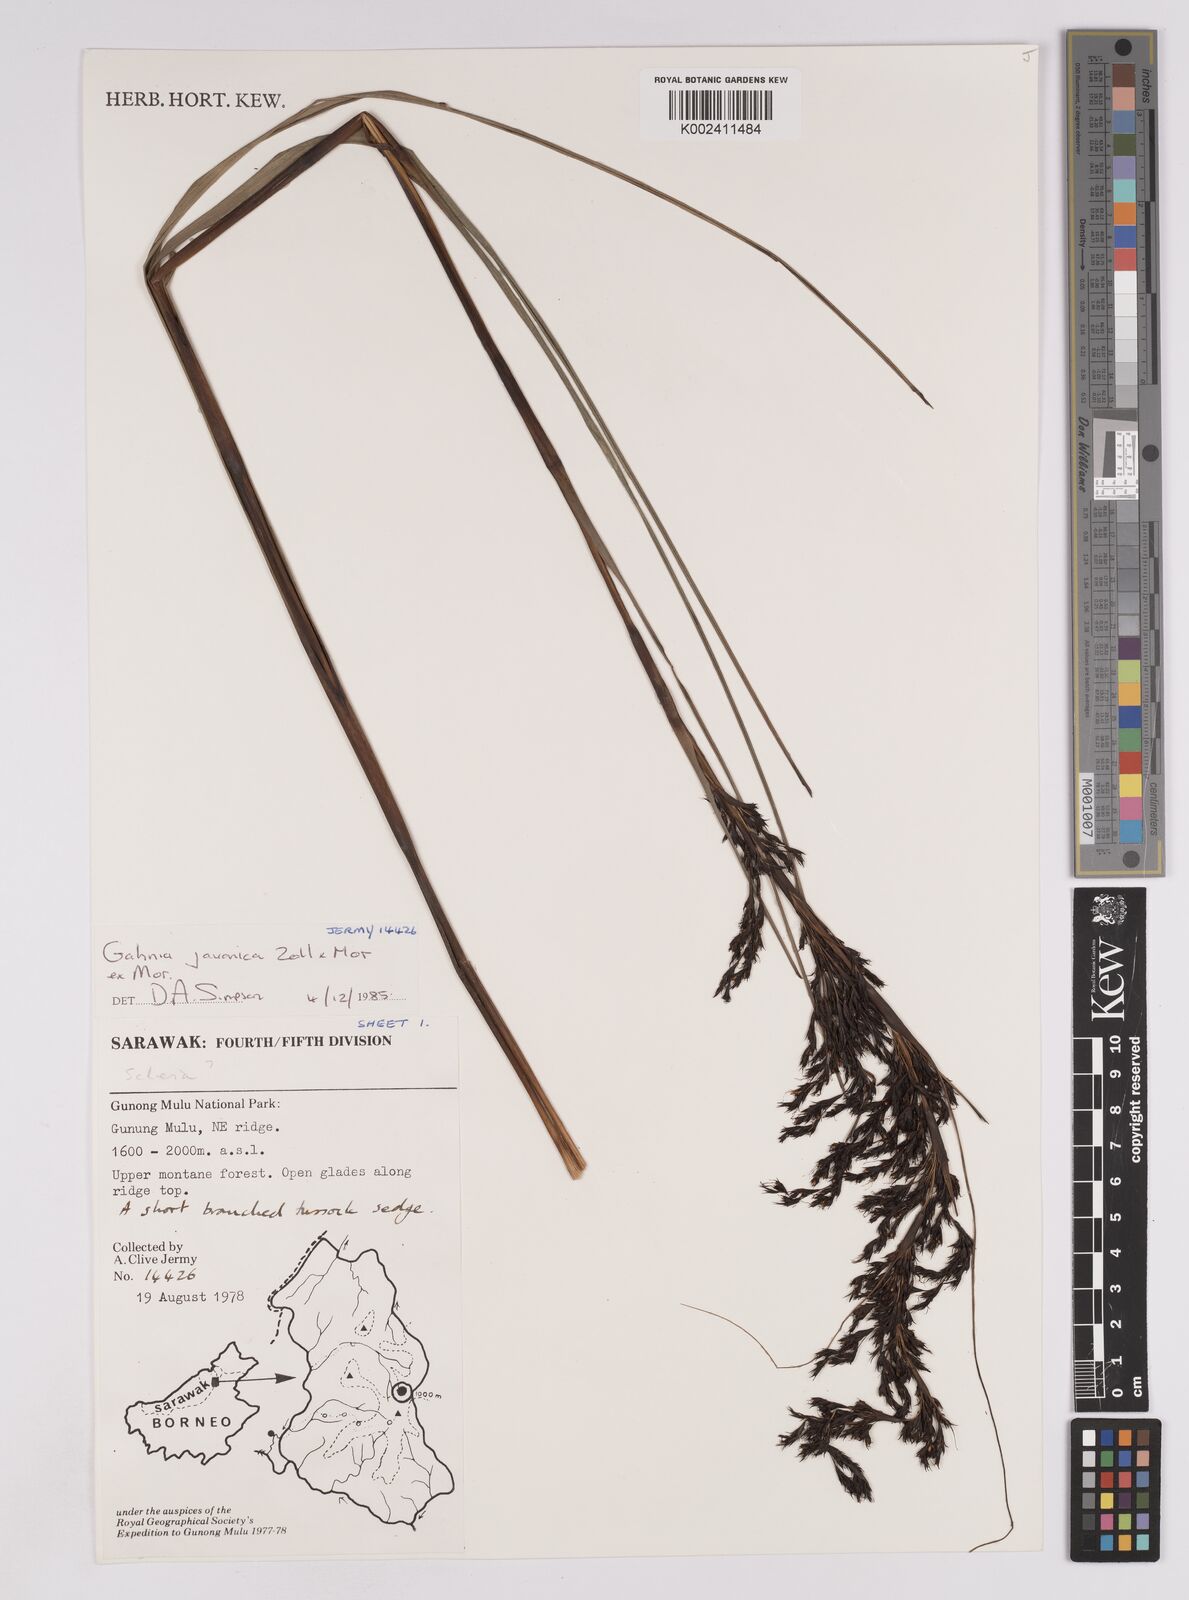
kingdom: Plantae
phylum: Tracheophyta
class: Liliopsida
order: Poales
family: Cyperaceae
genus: Gahnia
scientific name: Gahnia javanica
